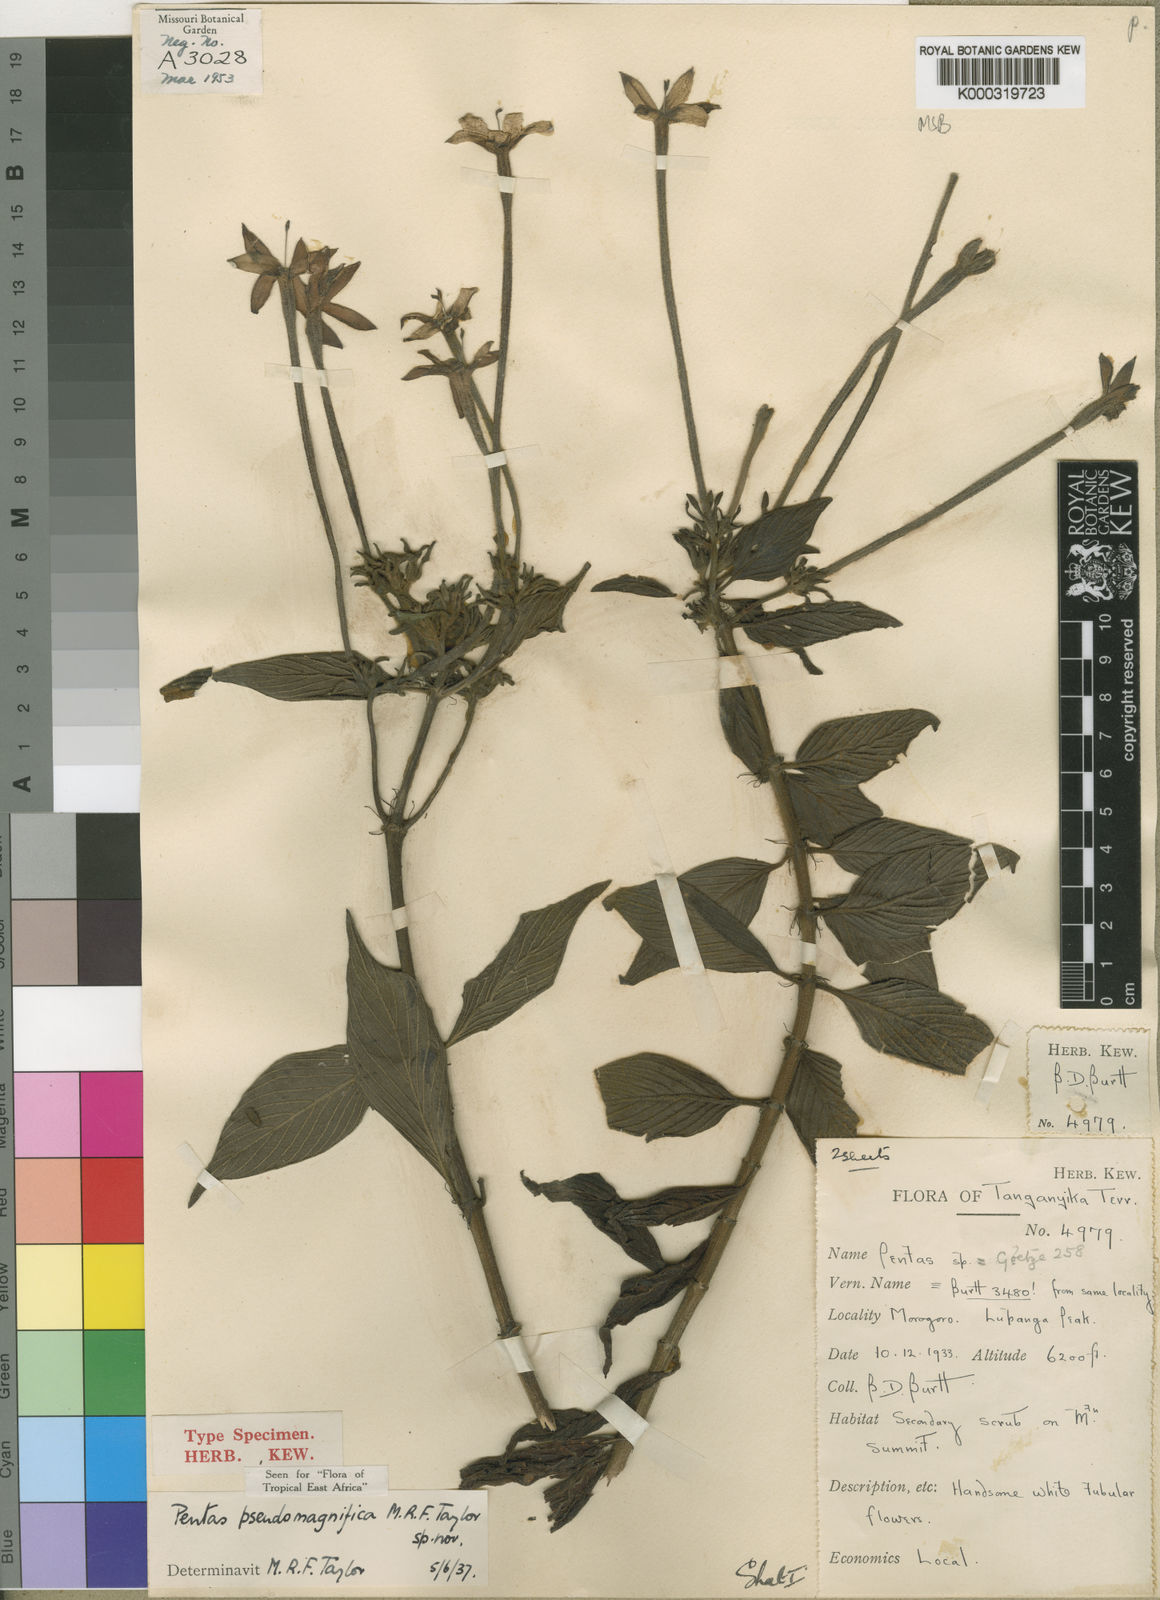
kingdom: Plantae
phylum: Tracheophyta
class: Magnoliopsida
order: Gentianales
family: Rubiaceae
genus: Chamaepentas
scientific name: Chamaepentas pseudomagnifica
